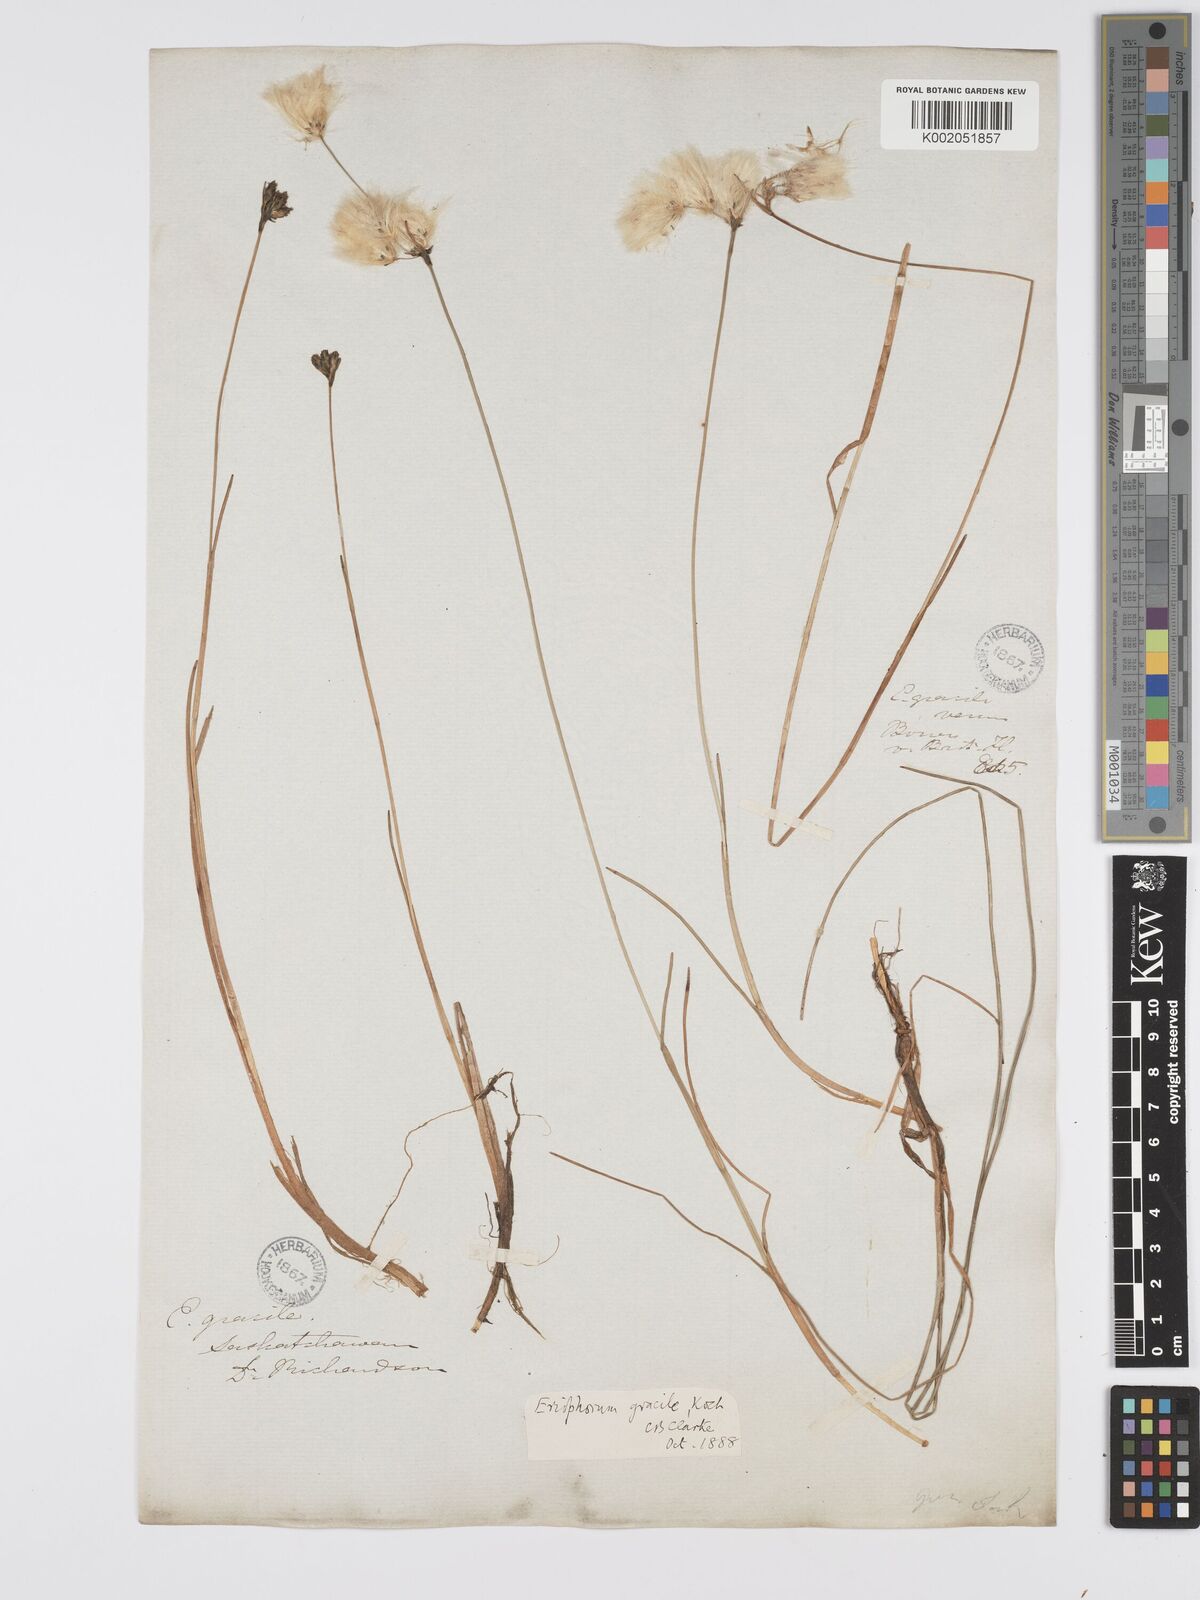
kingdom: Plantae
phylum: Tracheophyta
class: Liliopsida
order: Poales
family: Cyperaceae
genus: Eriophorum
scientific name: Eriophorum gracile
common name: Slender cottongrass
